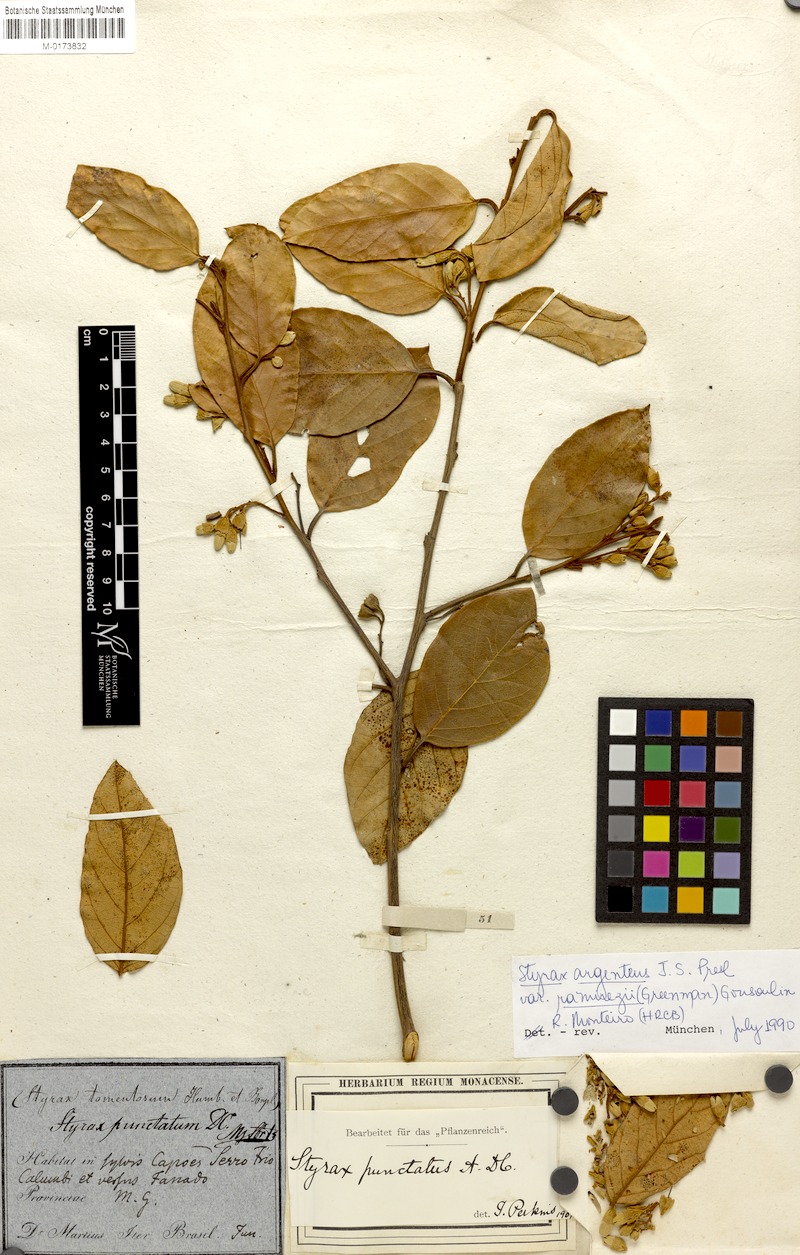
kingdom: Plantae
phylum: Tracheophyta
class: Magnoliopsida
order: Ericales
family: Styracaceae
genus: Styrax
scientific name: Styrax argenteus
